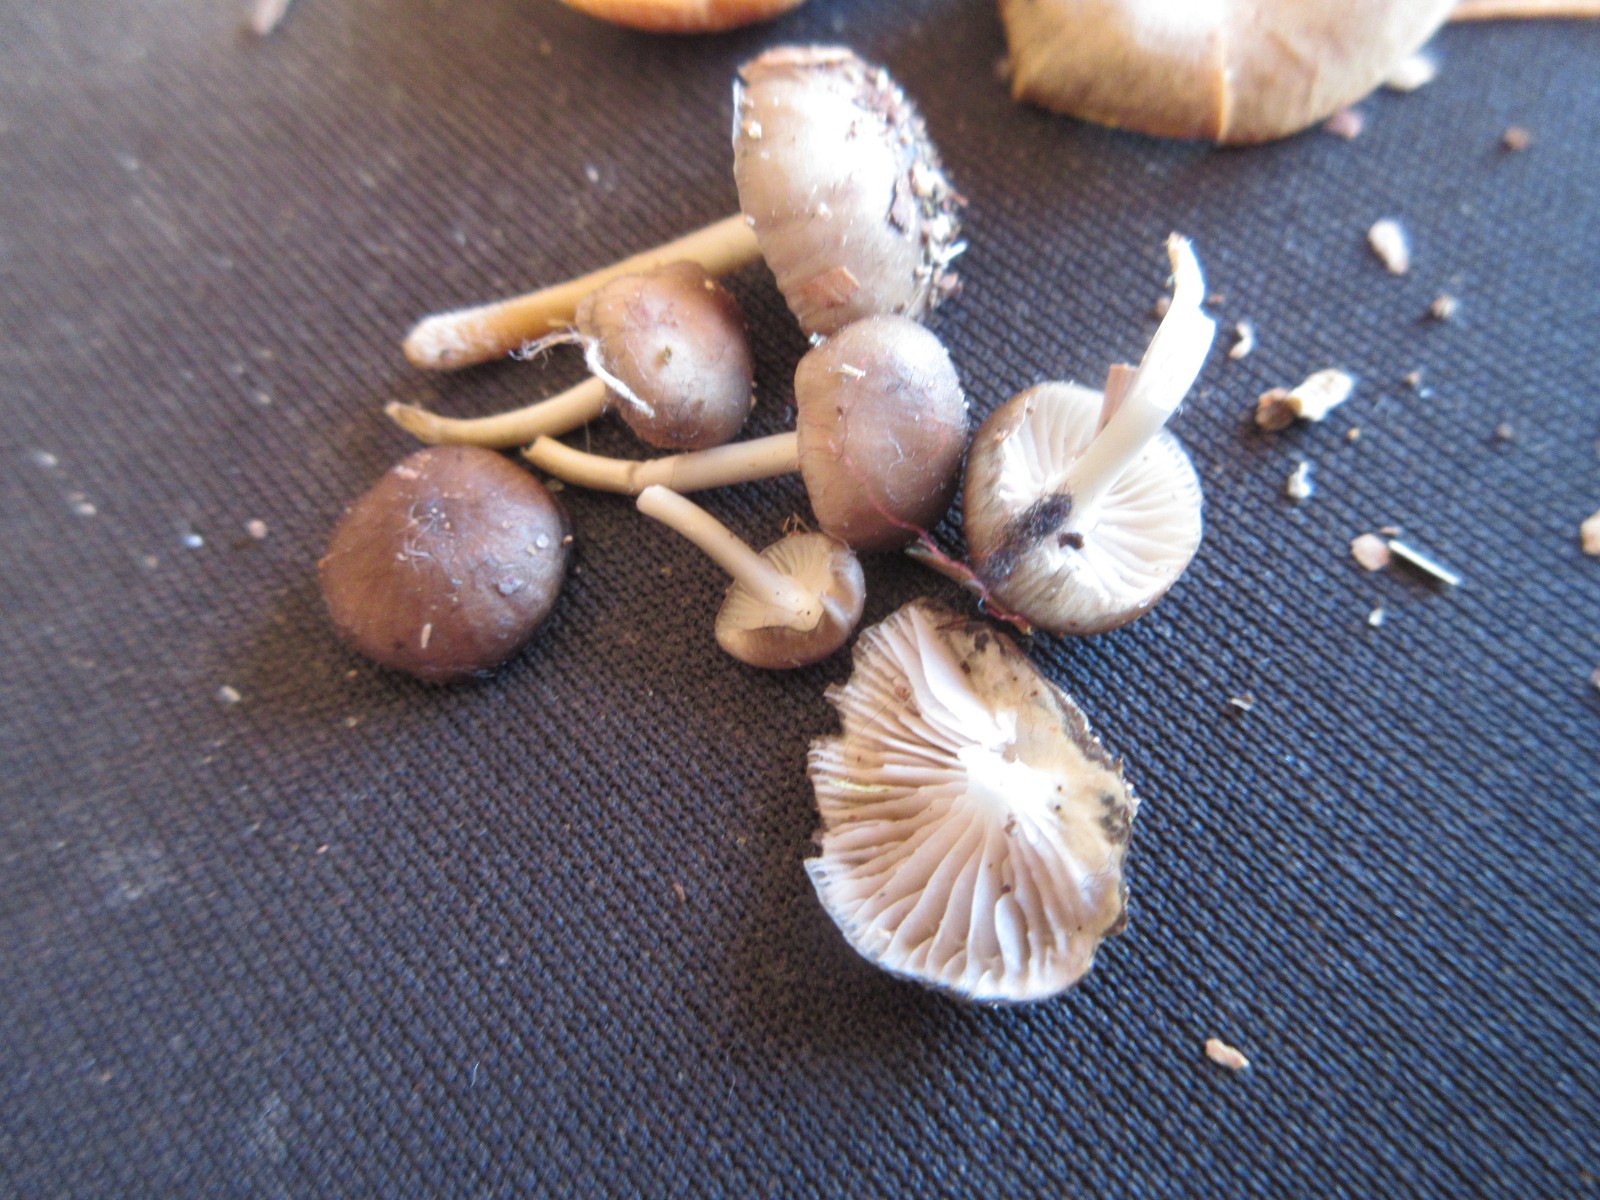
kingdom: Fungi
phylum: Basidiomycota
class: Agaricomycetes
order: Agaricales
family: Mycenaceae
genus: Mycena
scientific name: Mycena tintinnabulum
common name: vinter-huesvamp
